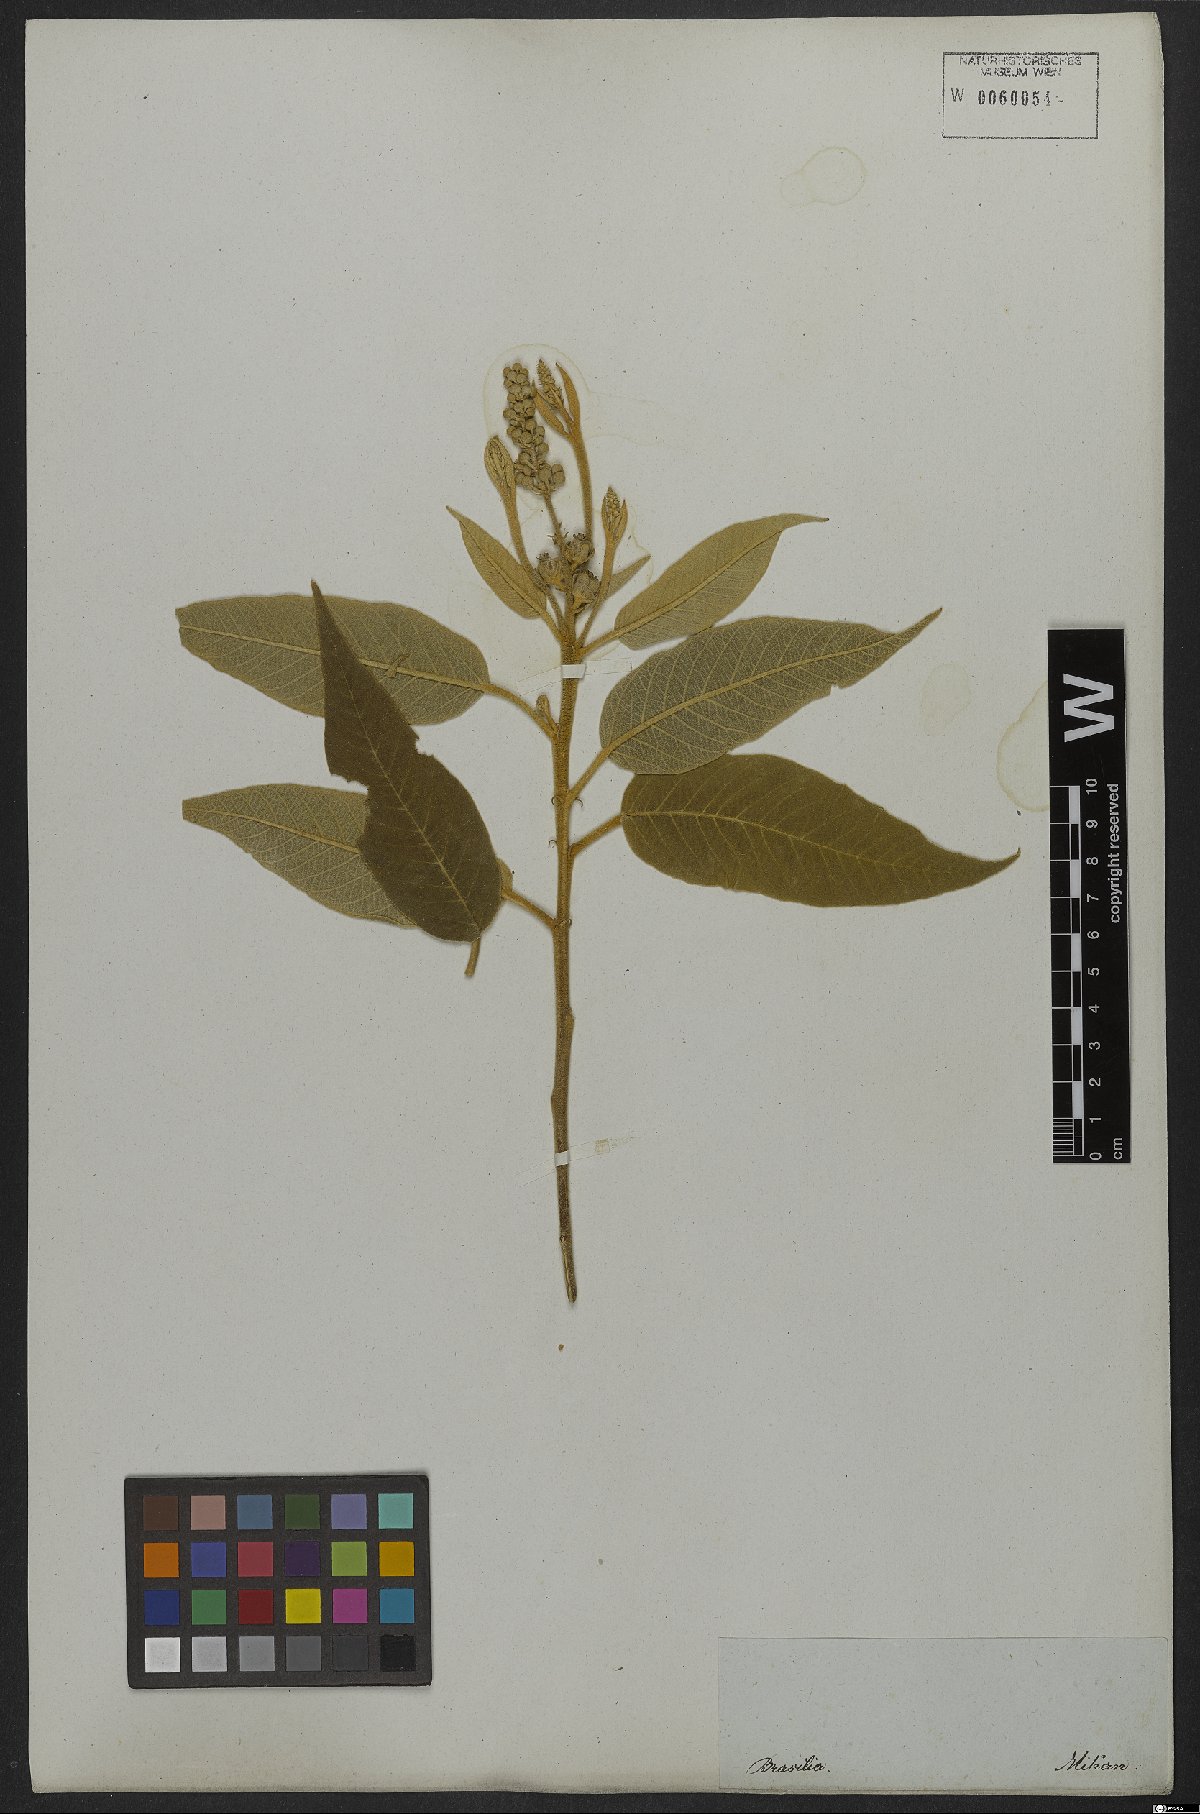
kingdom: Plantae
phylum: Tracheophyta
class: Magnoliopsida
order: Malpighiales
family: Euphorbiaceae
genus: Croton
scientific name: Croton compressus
